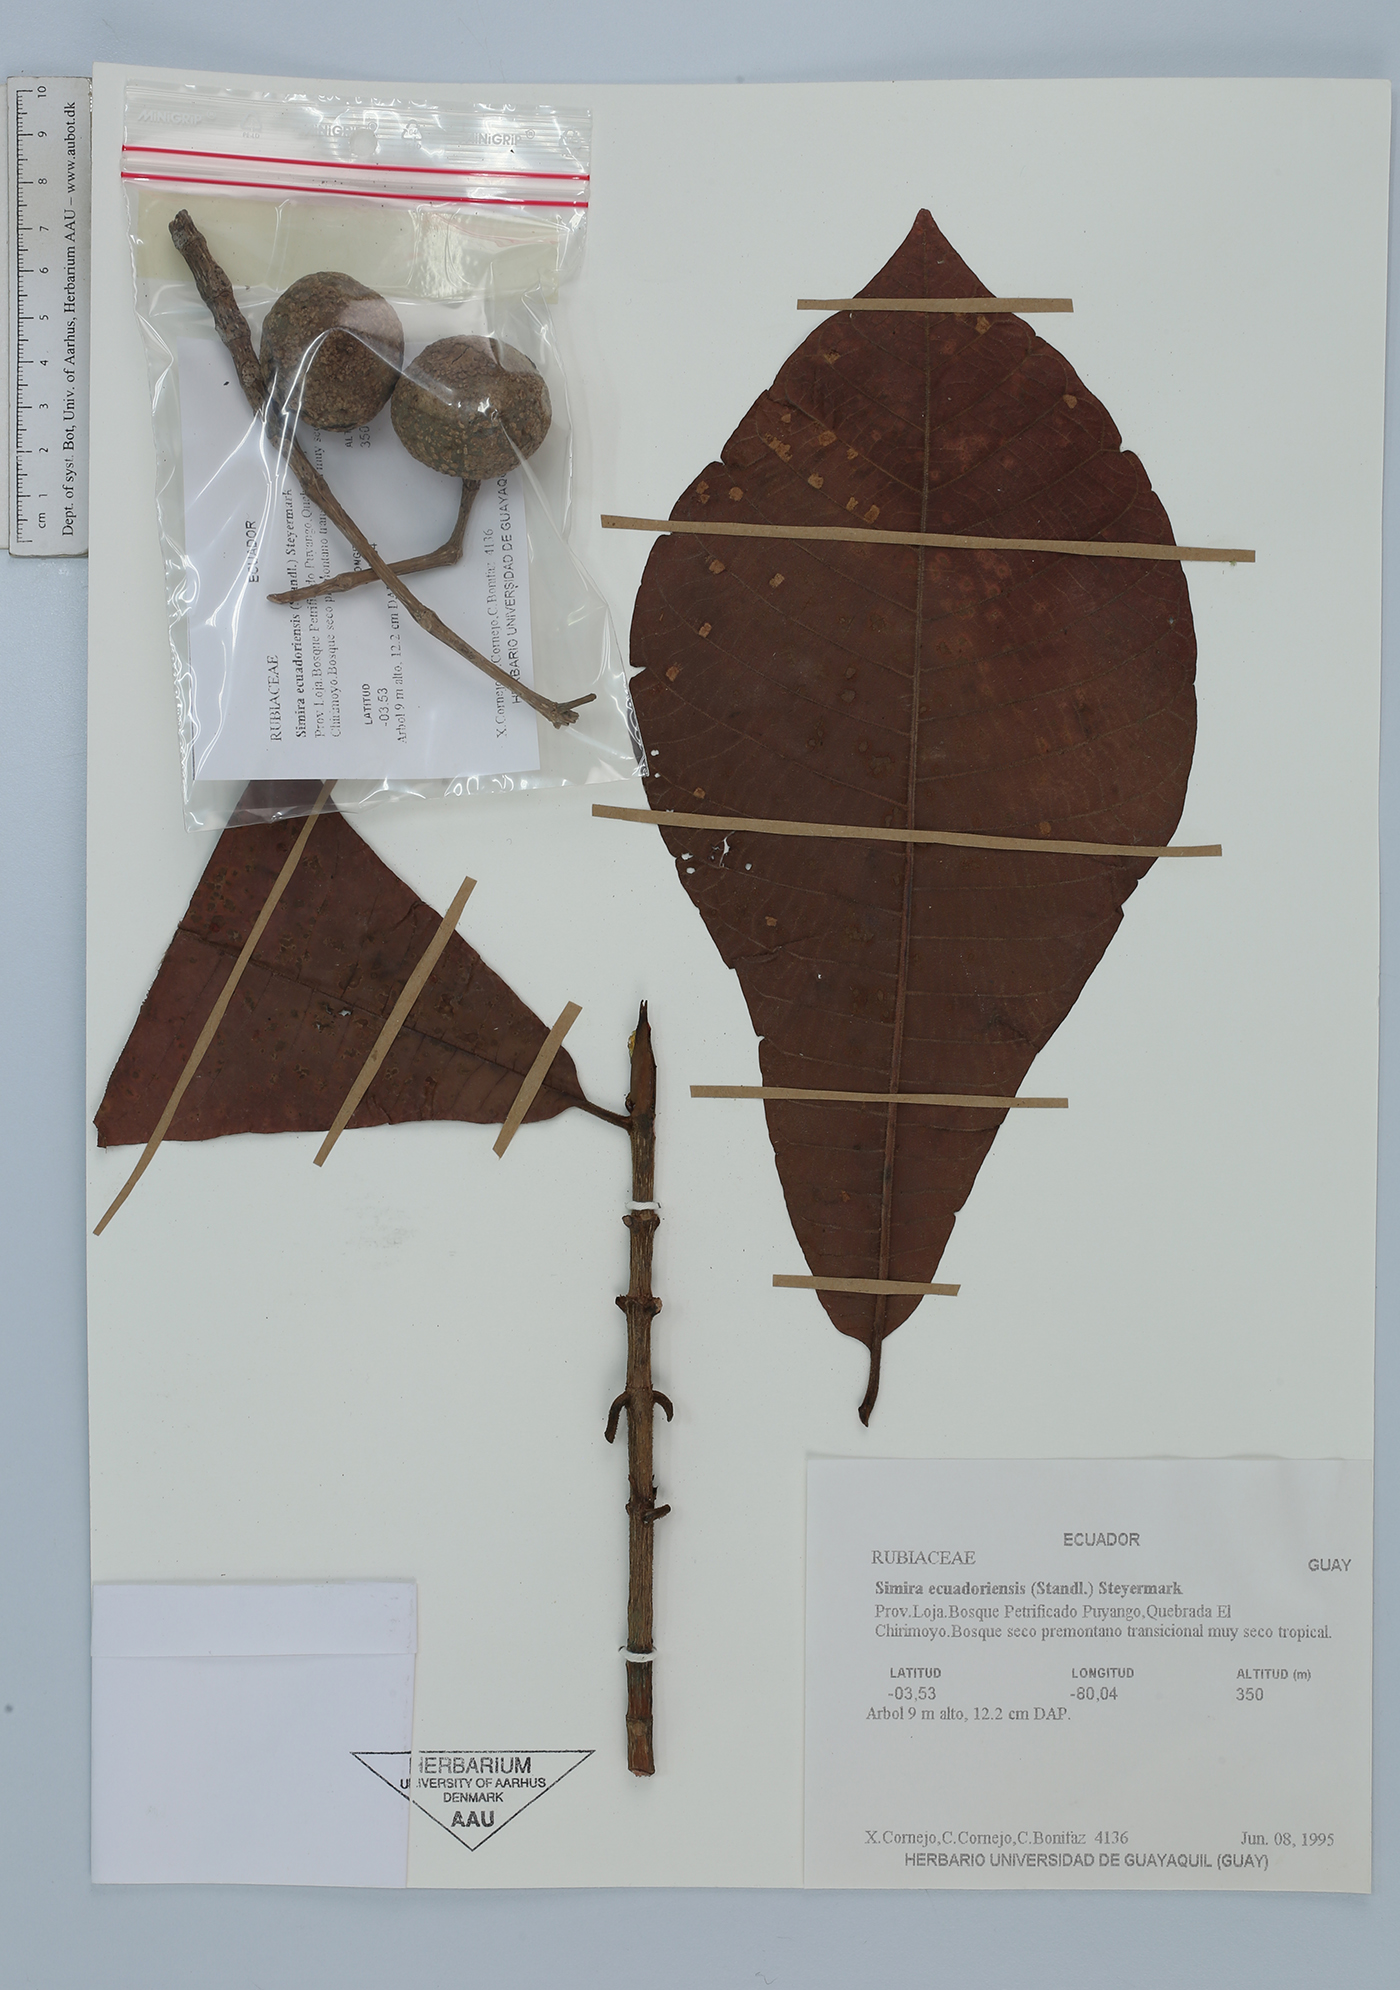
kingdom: Plantae
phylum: Tracheophyta
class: Magnoliopsida
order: Gentianales
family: Rubiaceae
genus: Simira
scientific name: Simira ecuadorensis
